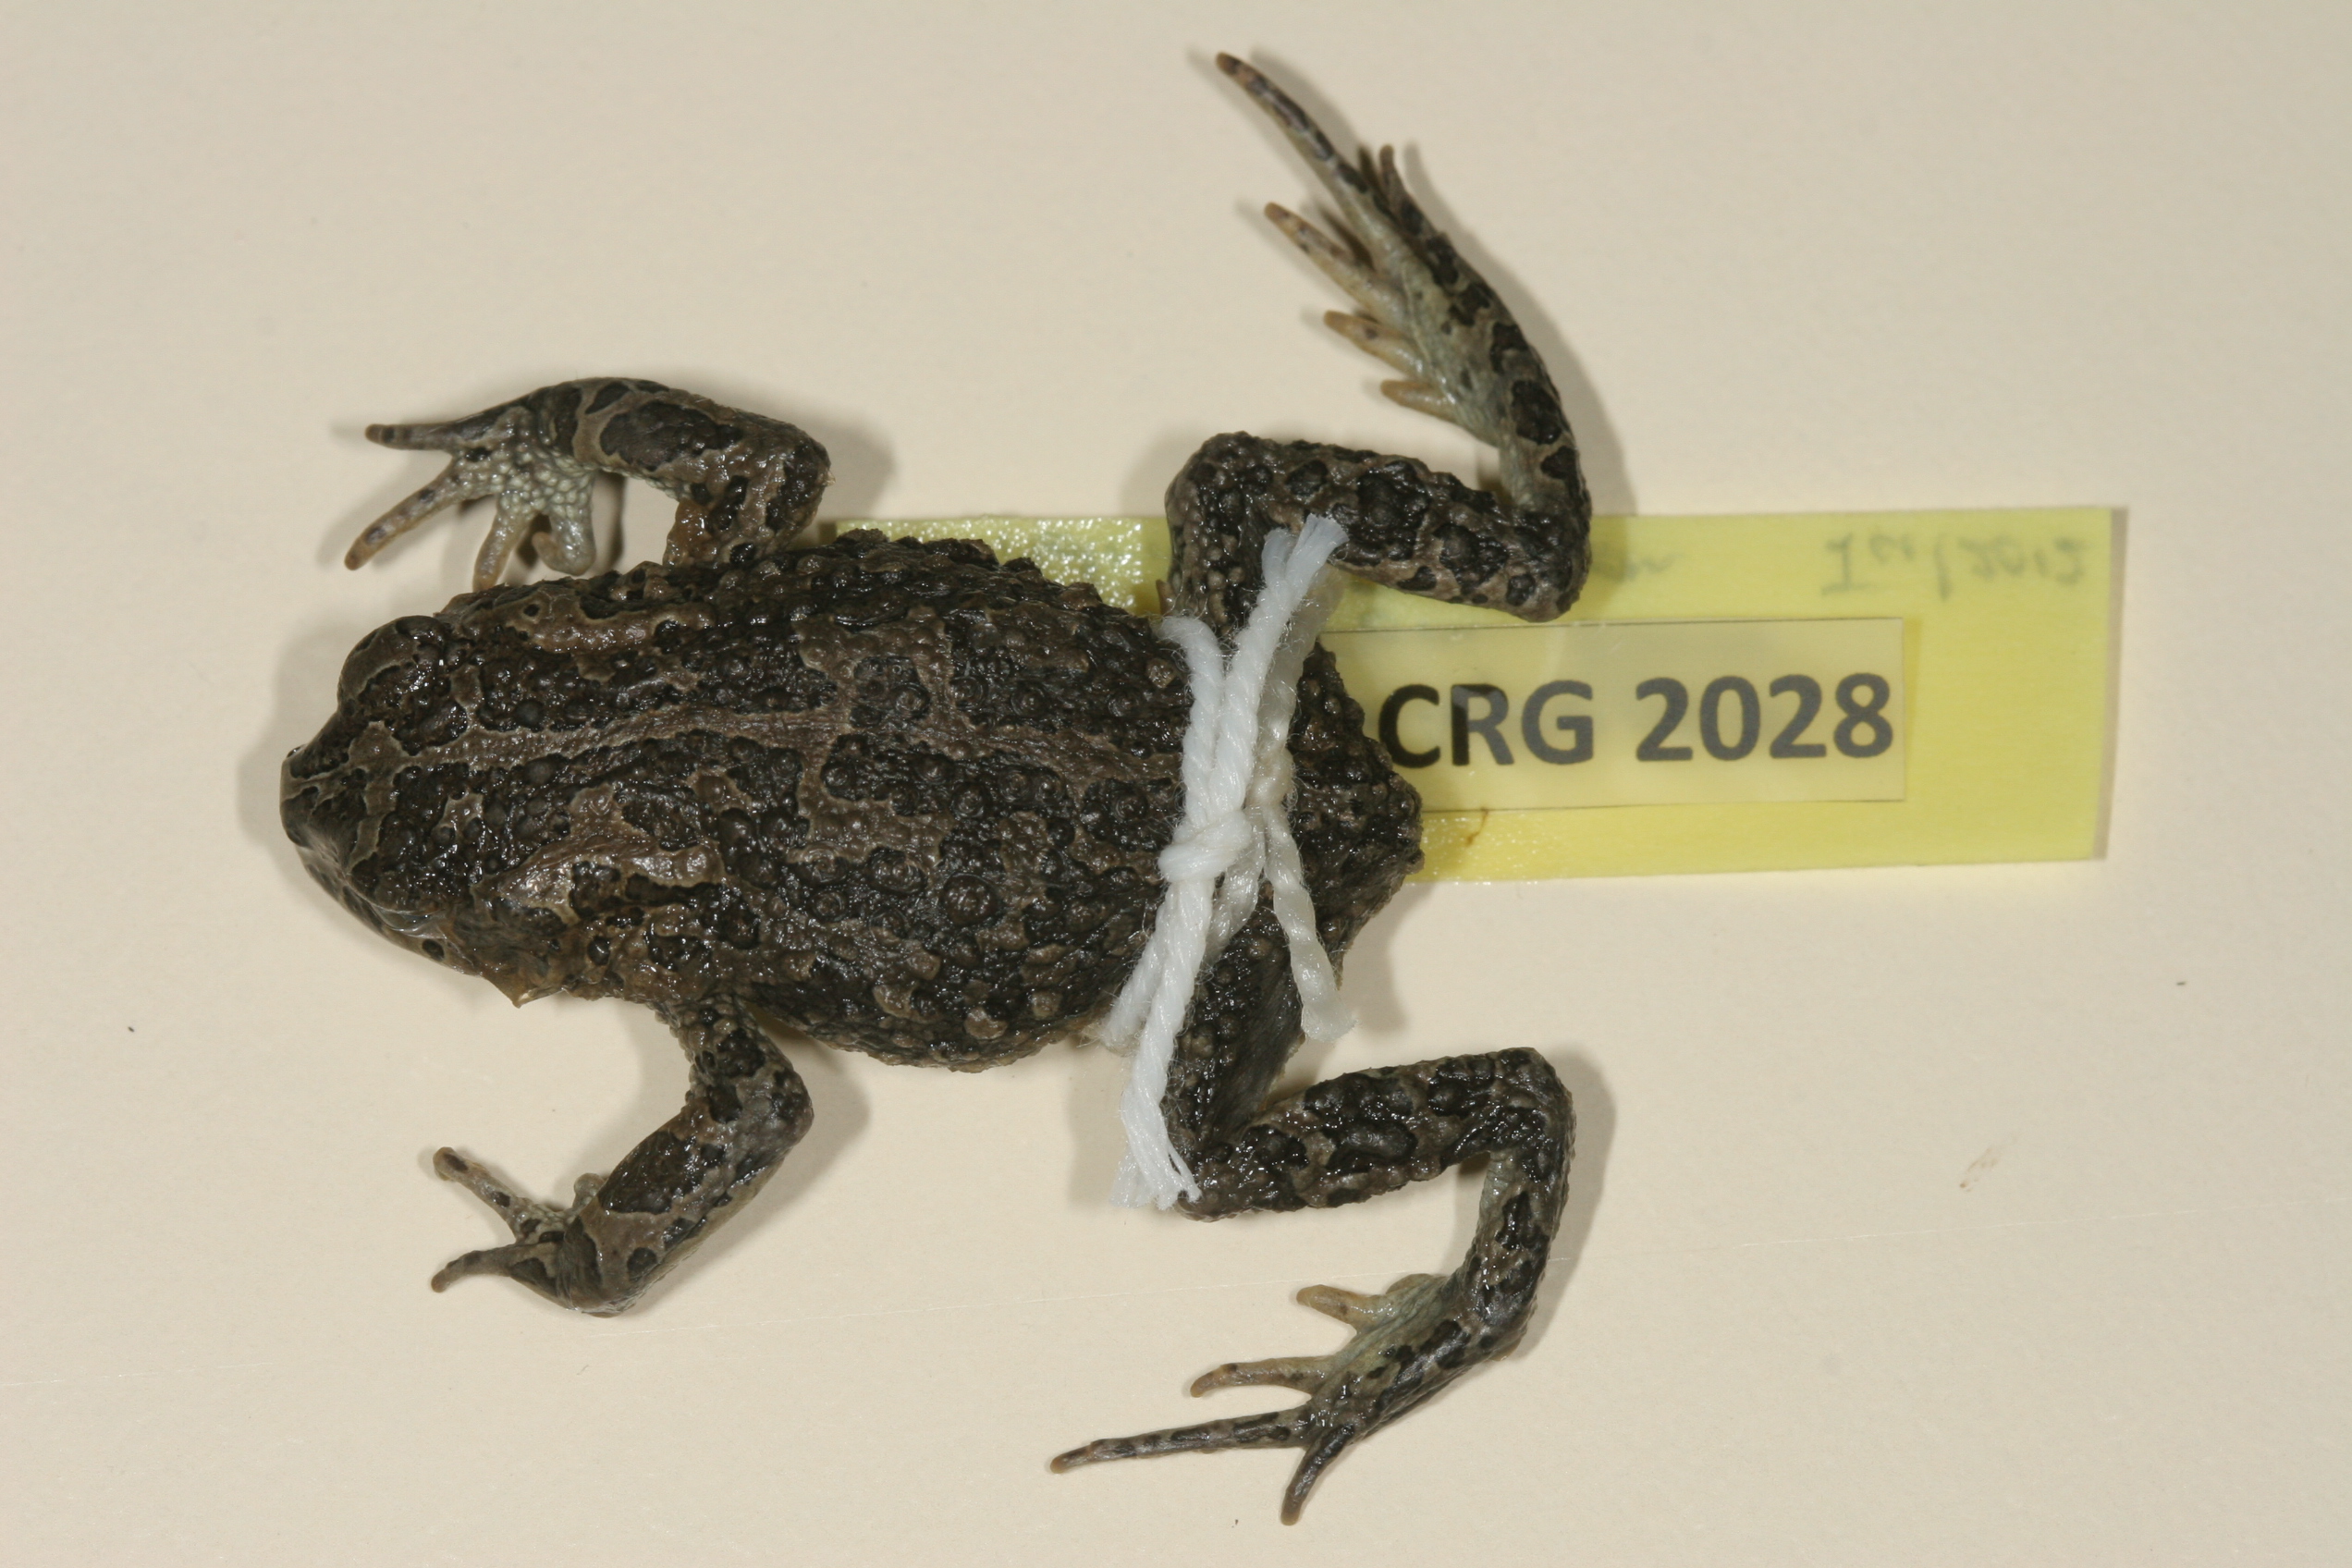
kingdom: Animalia
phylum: Chordata
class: Amphibia
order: Anura
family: Bufonidae
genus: Vandijkophrynus
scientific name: Vandijkophrynus gariepensis
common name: Gariep toad
